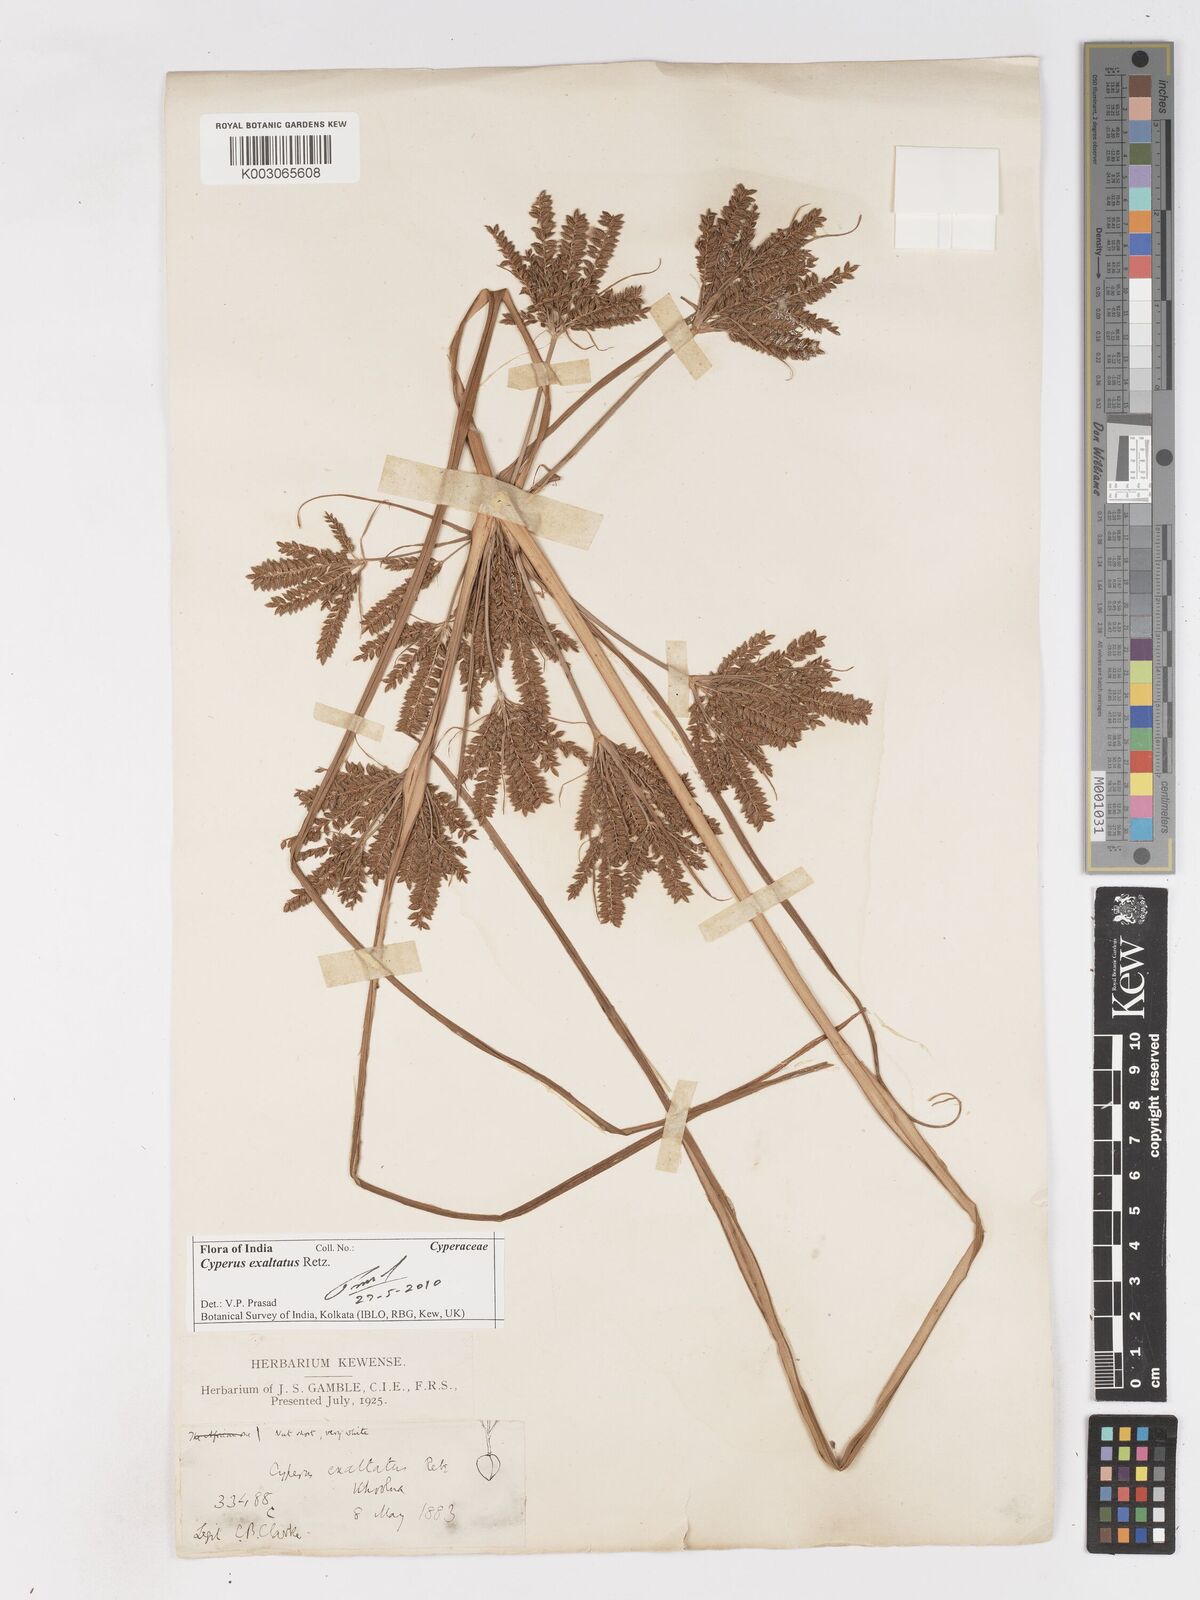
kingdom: Plantae
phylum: Tracheophyta
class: Liliopsida
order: Poales
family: Cyperaceae
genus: Cyperus
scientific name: Cyperus exaltatus
